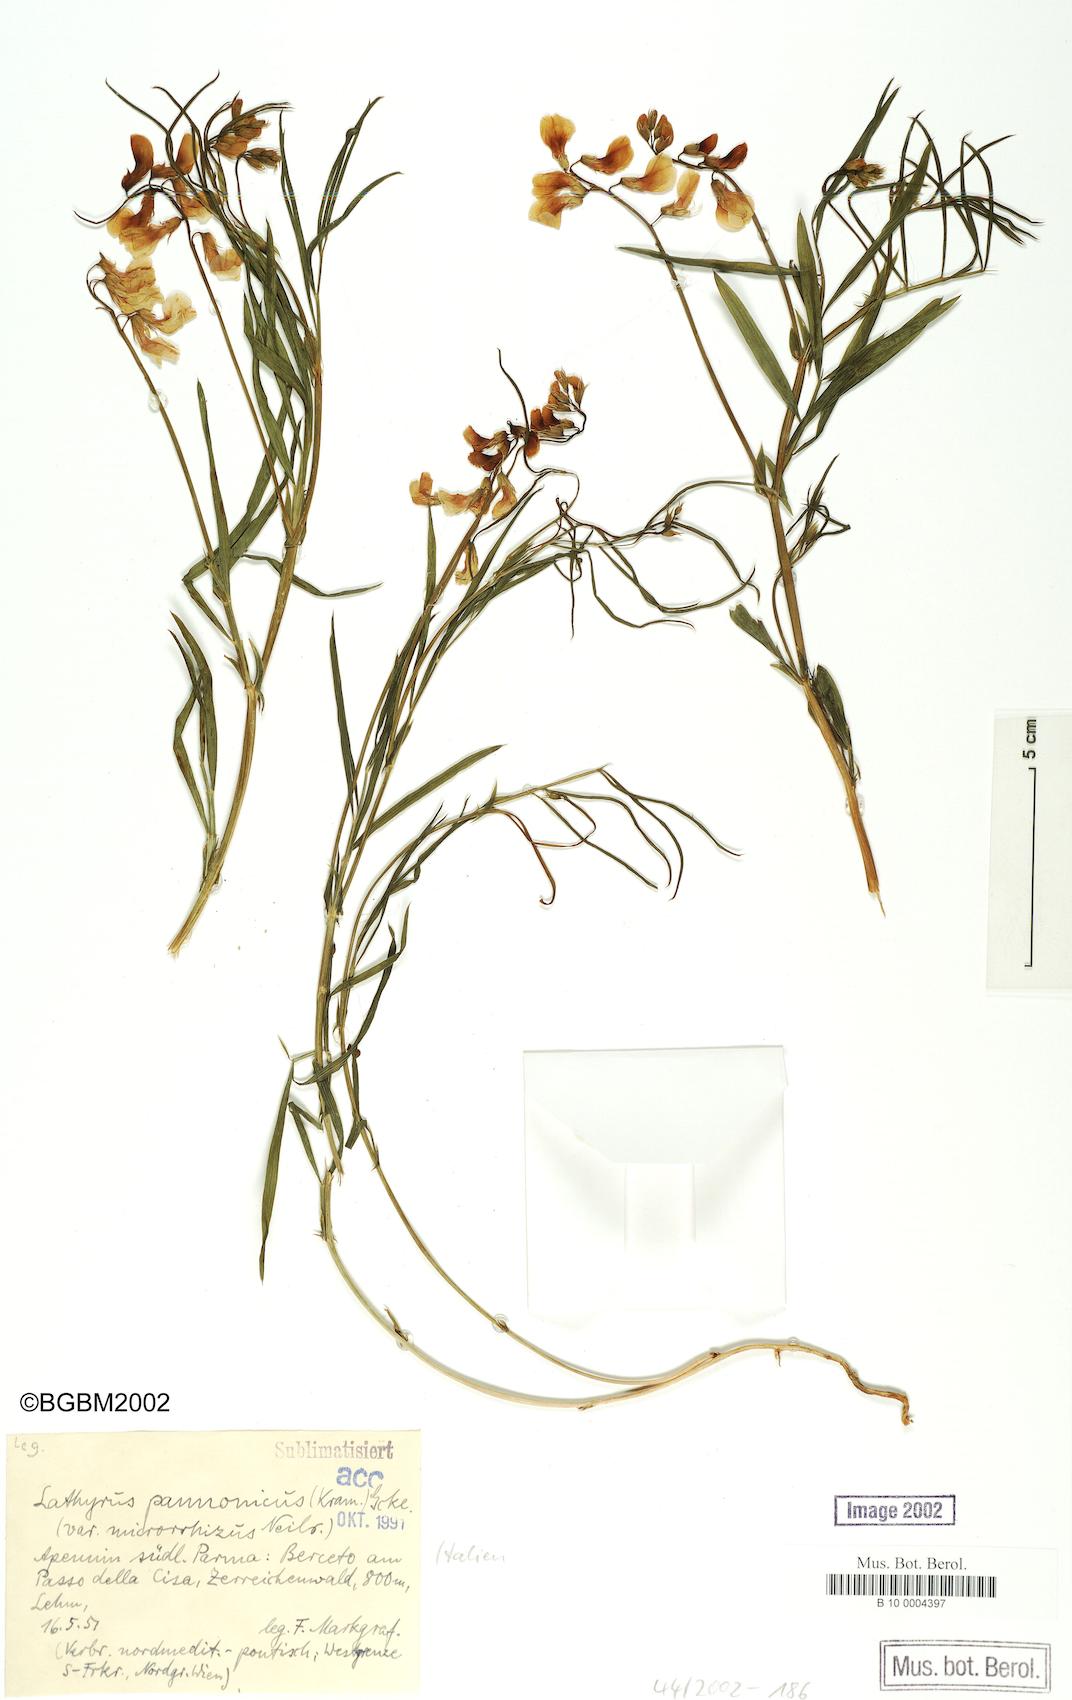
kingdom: Plantae
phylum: Tracheophyta
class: Magnoliopsida
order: Fabales
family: Fabaceae
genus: Lathyrus
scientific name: Lathyrus pannonicus
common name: Pea
